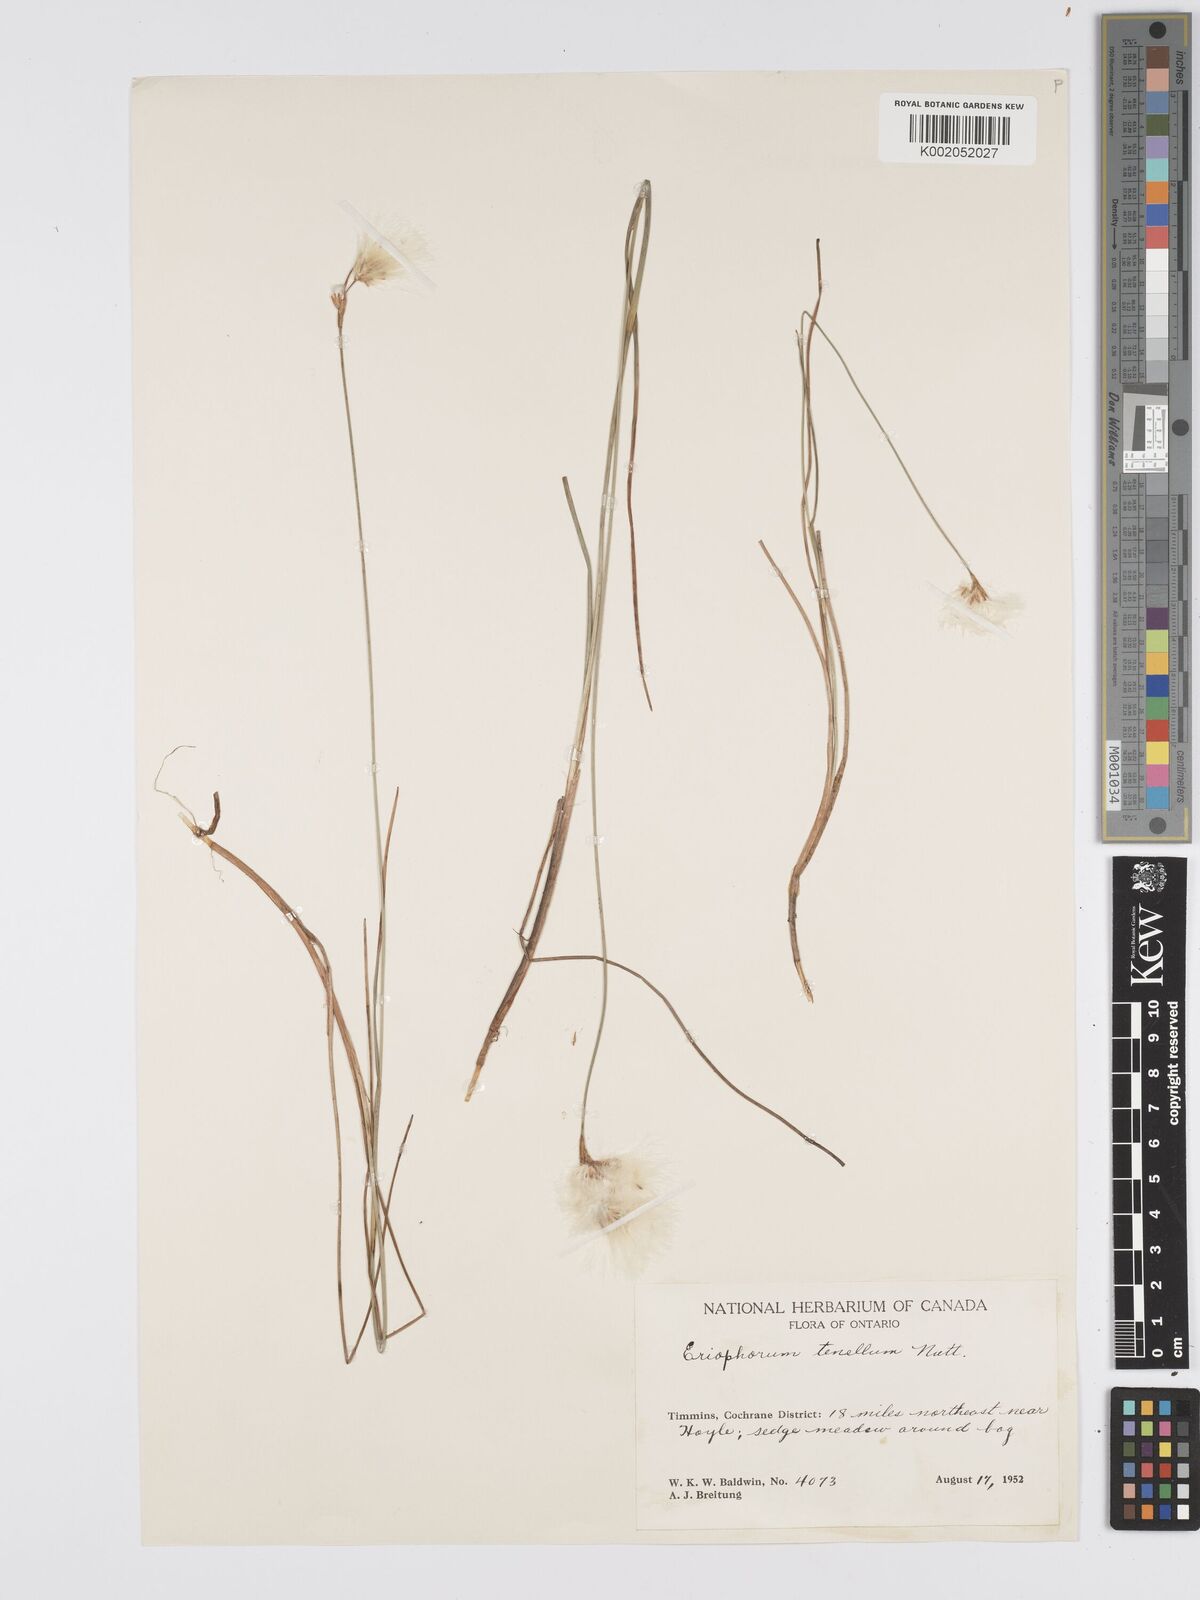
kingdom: Plantae
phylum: Tracheophyta
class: Liliopsida
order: Poales
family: Cyperaceae
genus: Eriophorum
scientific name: Eriophorum tenellum
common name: Few-nerved cottongrass
